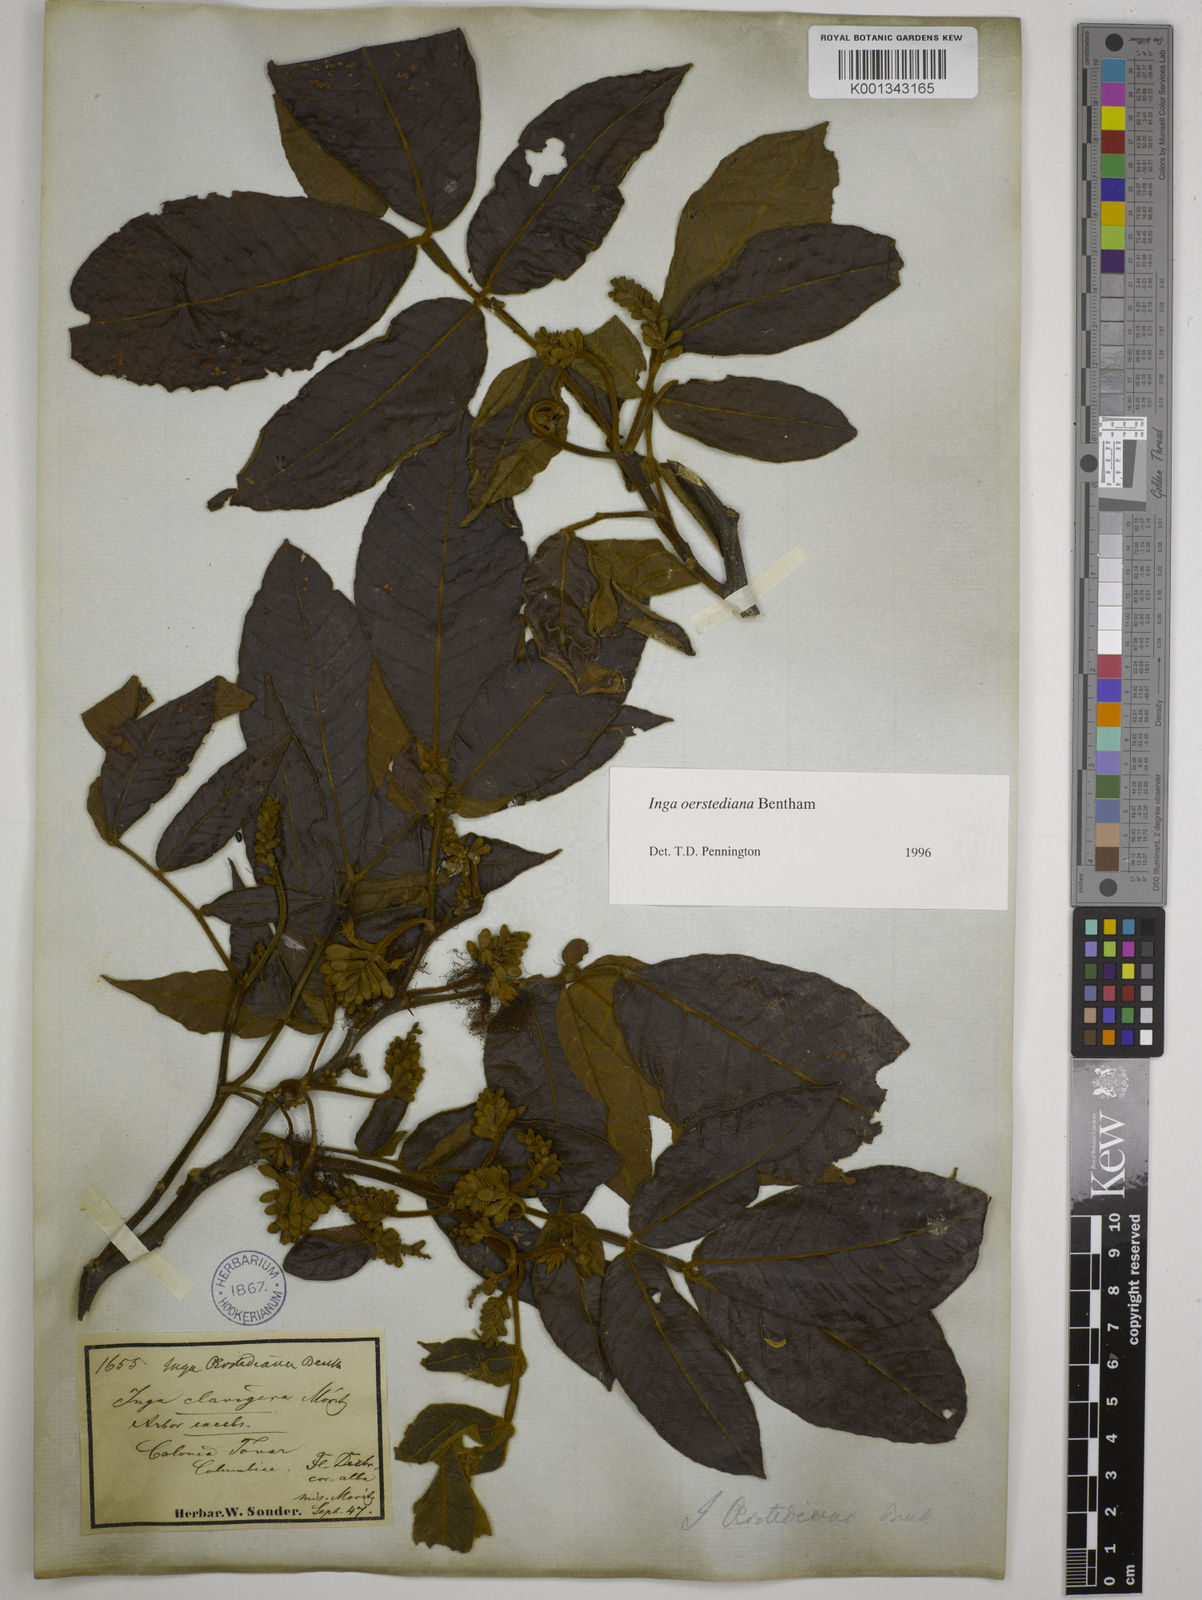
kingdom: Plantae
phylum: Tracheophyta
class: Magnoliopsida
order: Fabales
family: Fabaceae
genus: Inga
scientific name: Inga oerstediana
